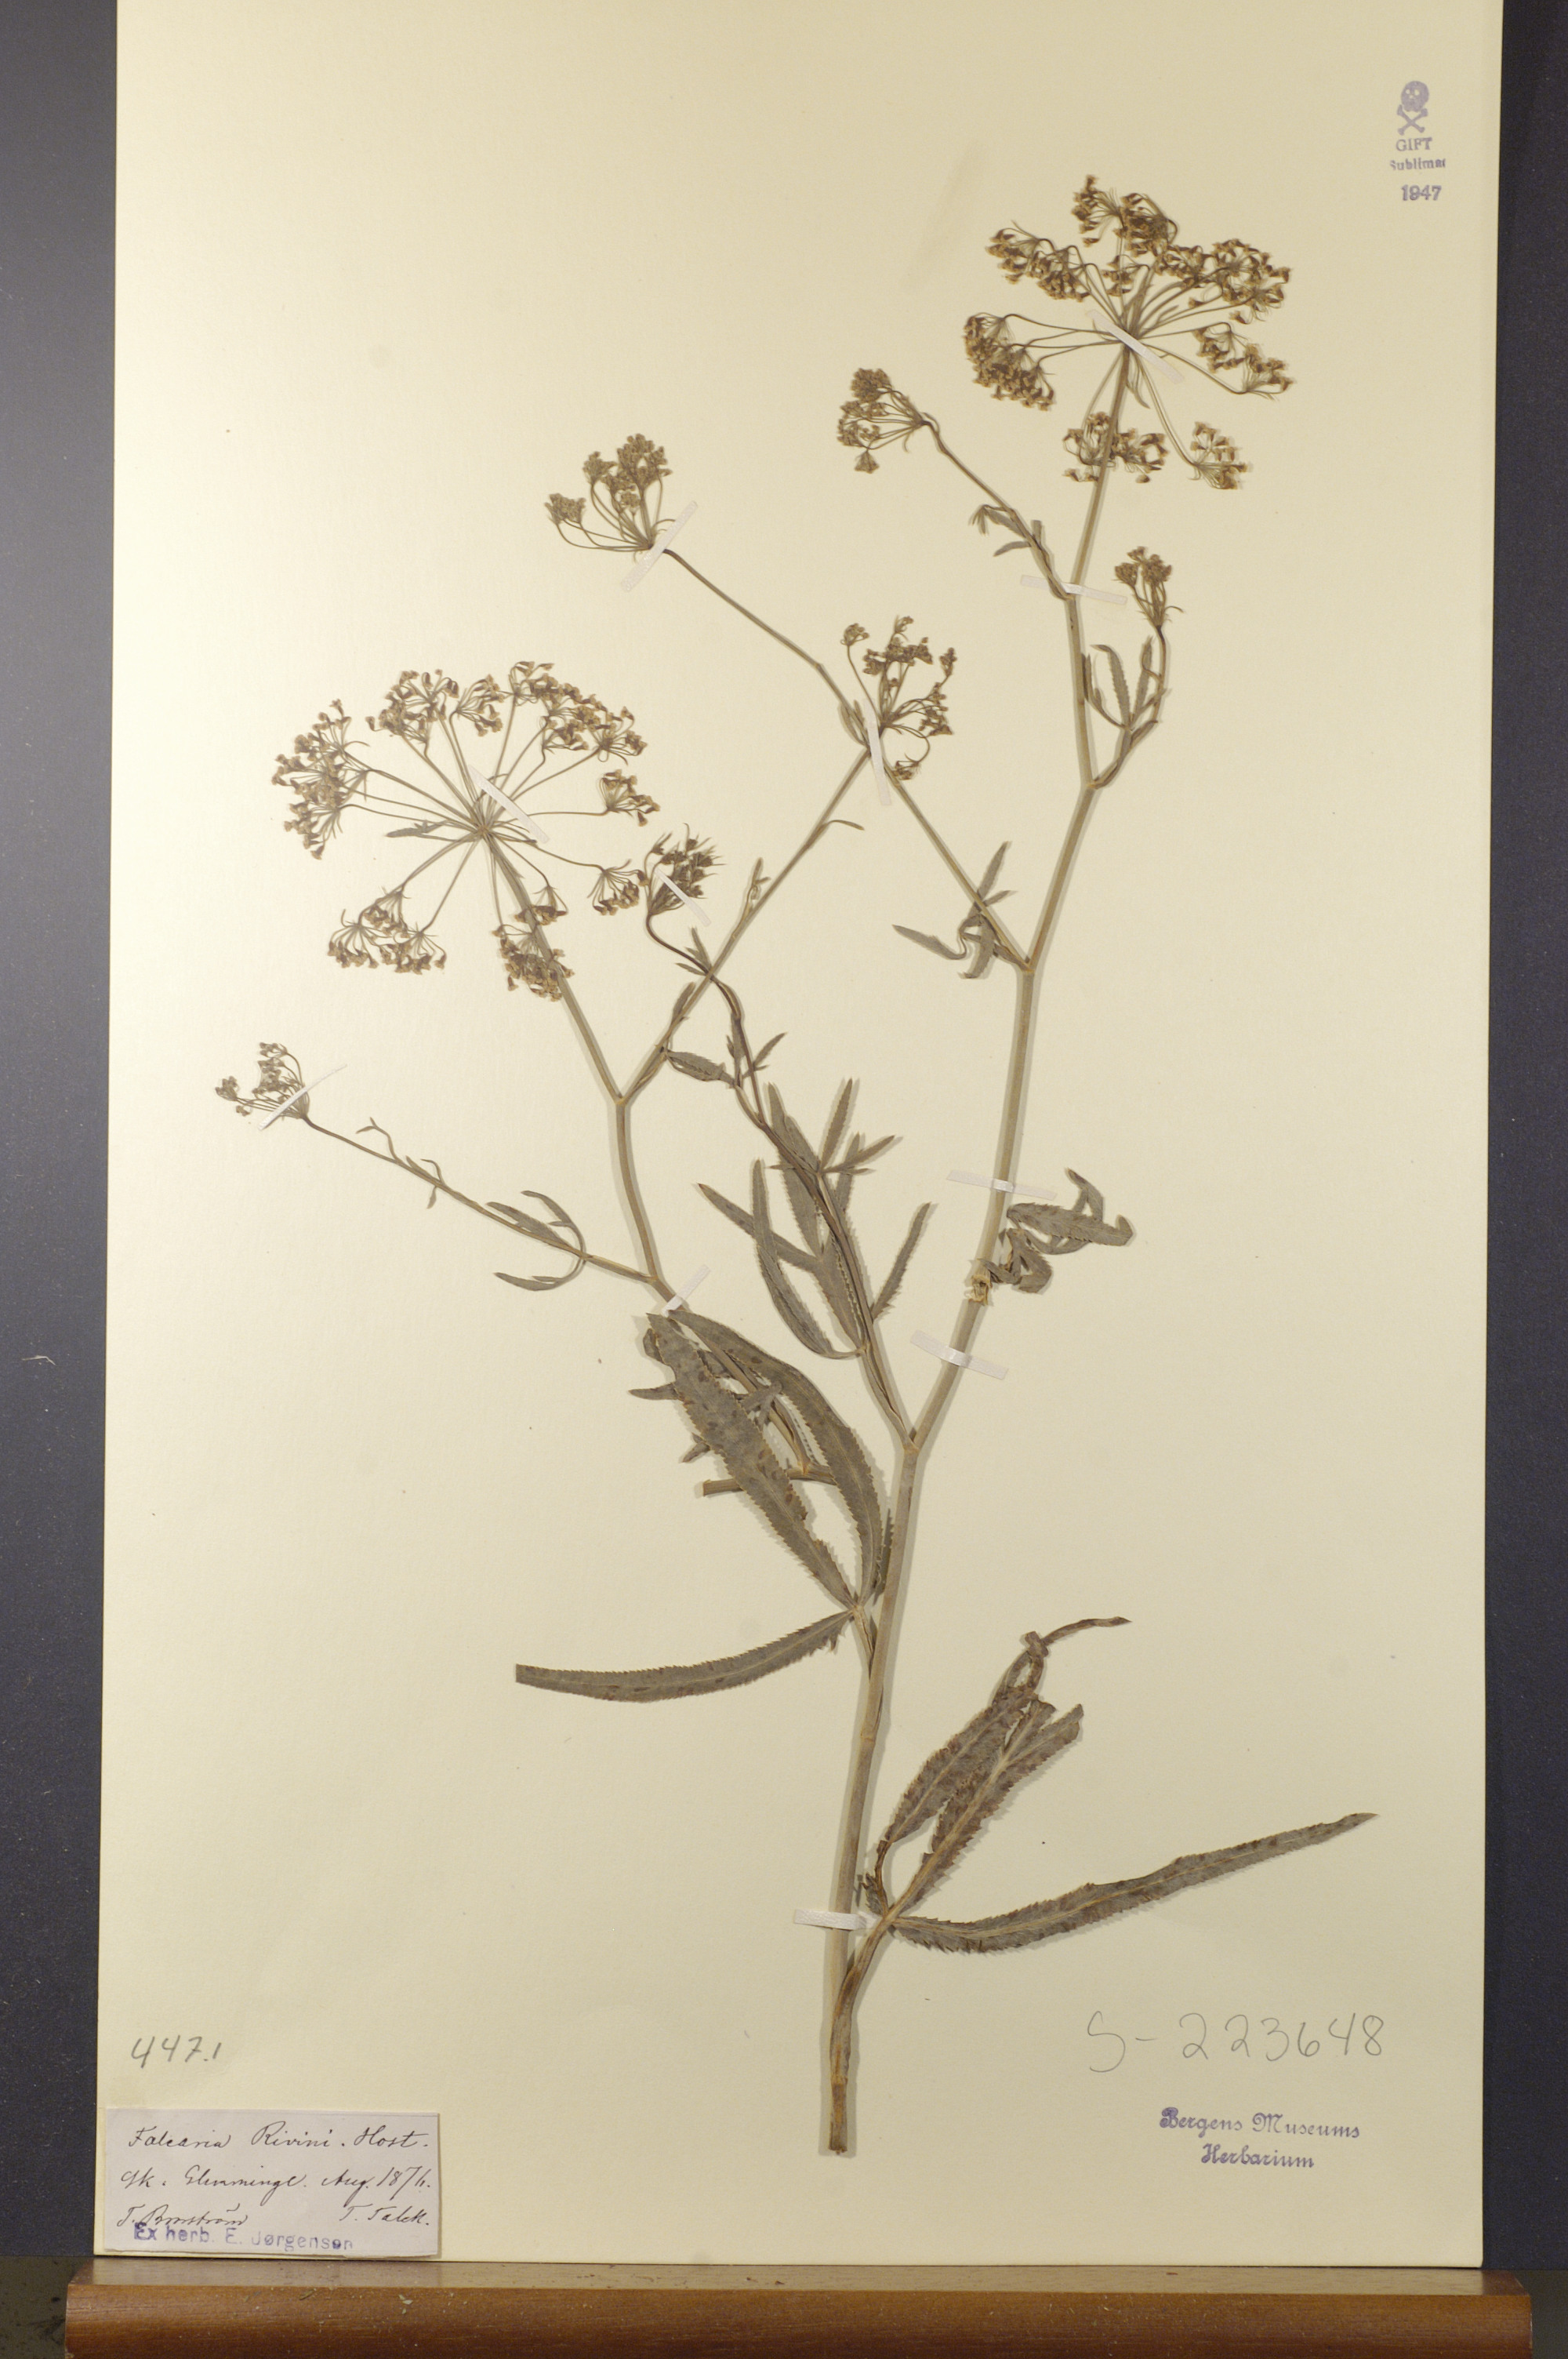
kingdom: Plantae
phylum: Tracheophyta
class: Magnoliopsida
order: Apiales
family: Apiaceae
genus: Falcaria
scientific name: Falcaria vulgaris
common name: Longleaf
